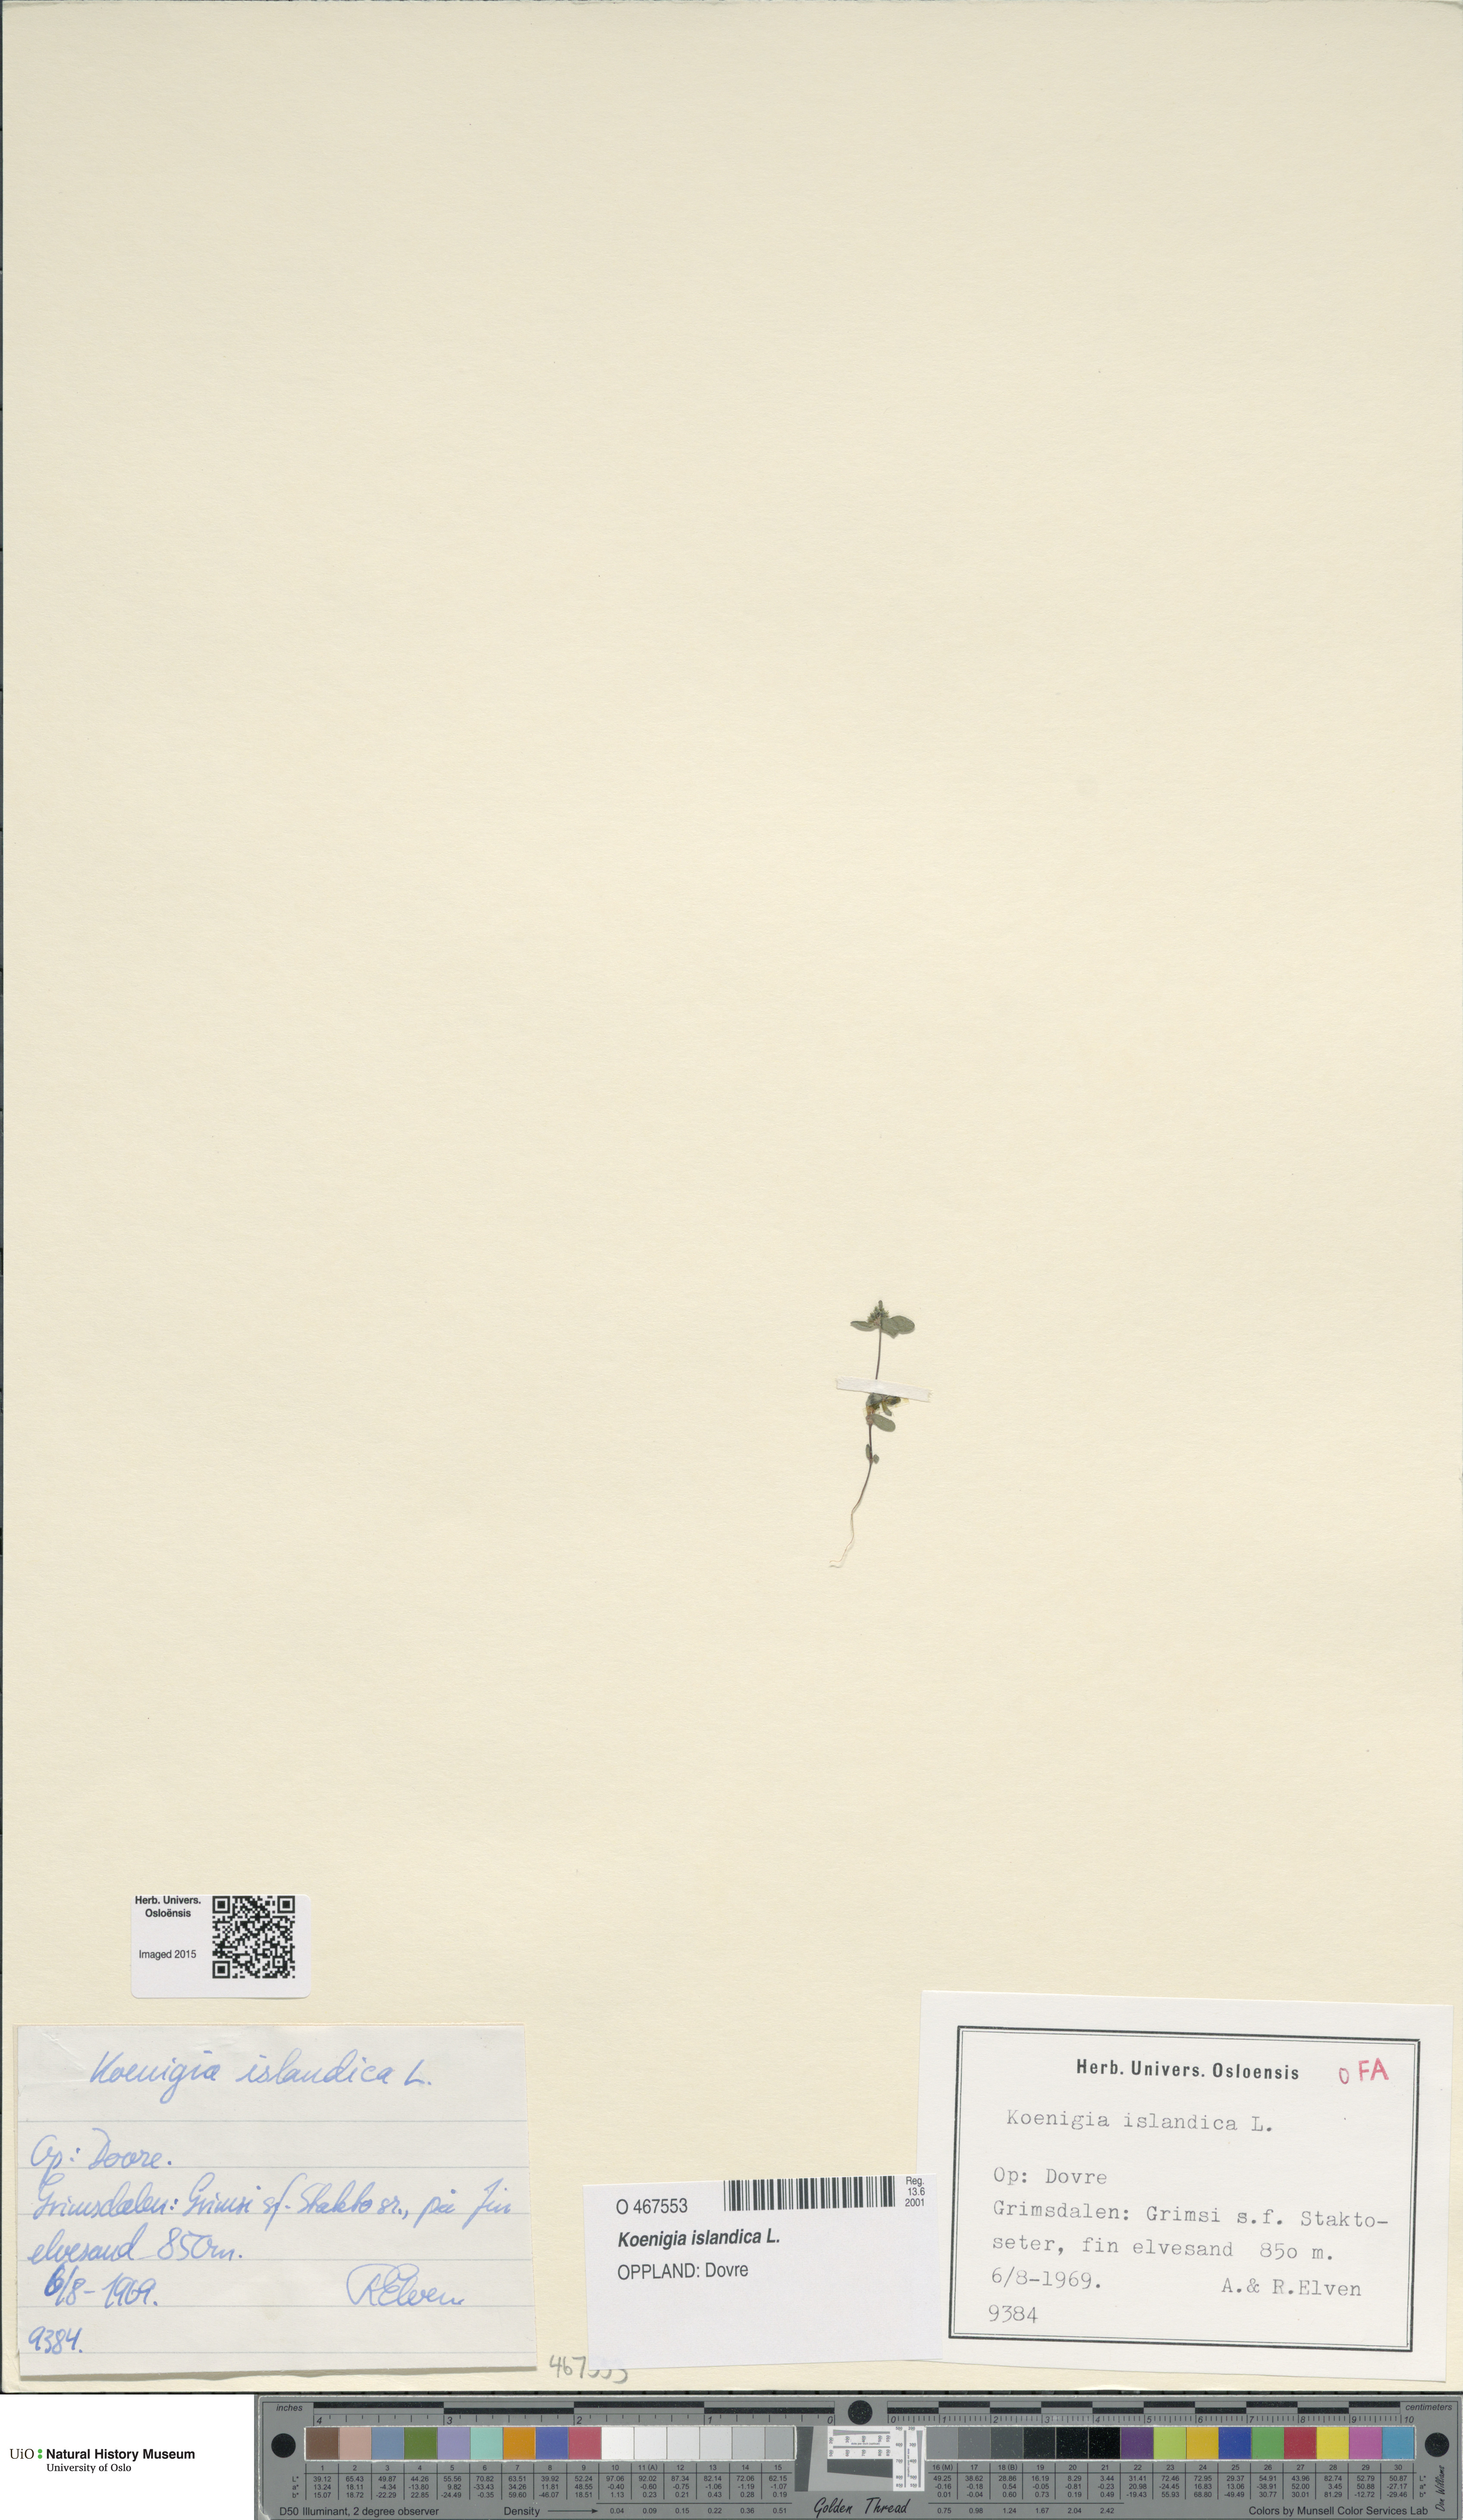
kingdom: Plantae
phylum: Tracheophyta
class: Magnoliopsida
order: Caryophyllales
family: Polygonaceae
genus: Koenigia
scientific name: Koenigia islandica
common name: Iceland-purslane
